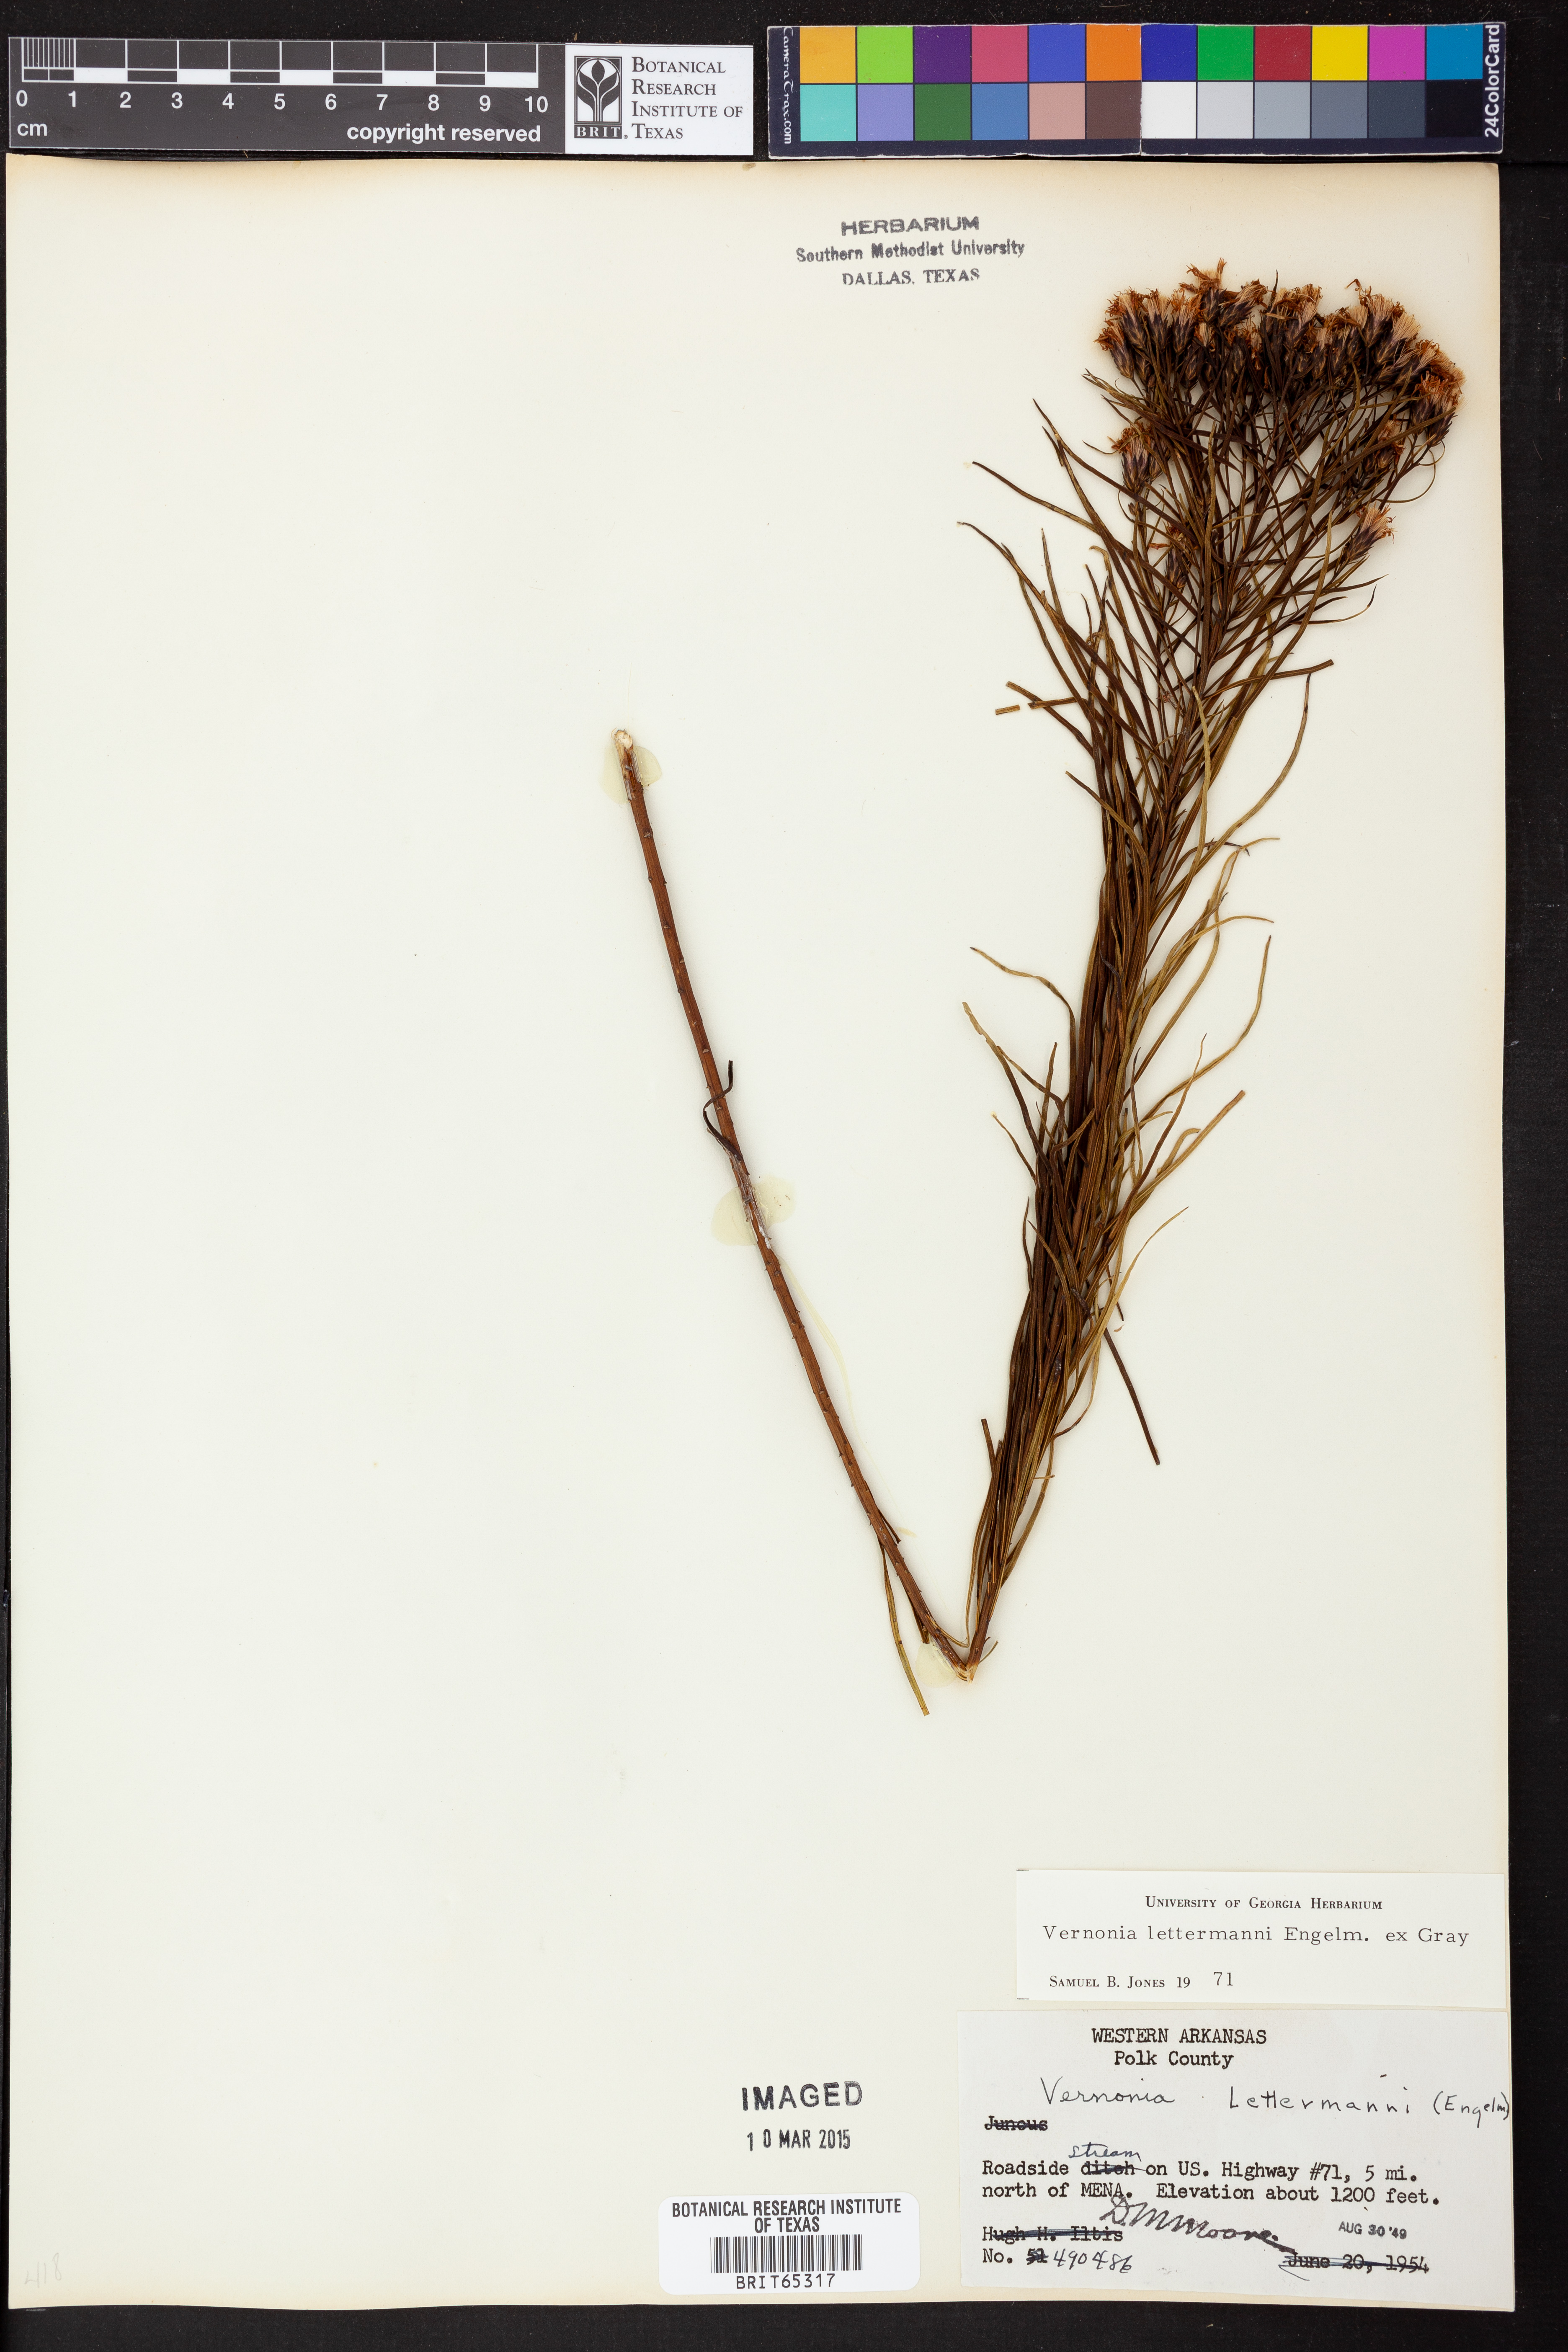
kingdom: Plantae
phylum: Tracheophyta
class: Magnoliopsida
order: Asterales
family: Asteraceae
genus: Vernonia
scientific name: Vernonia lettermannii
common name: Lettermann's ironweed
